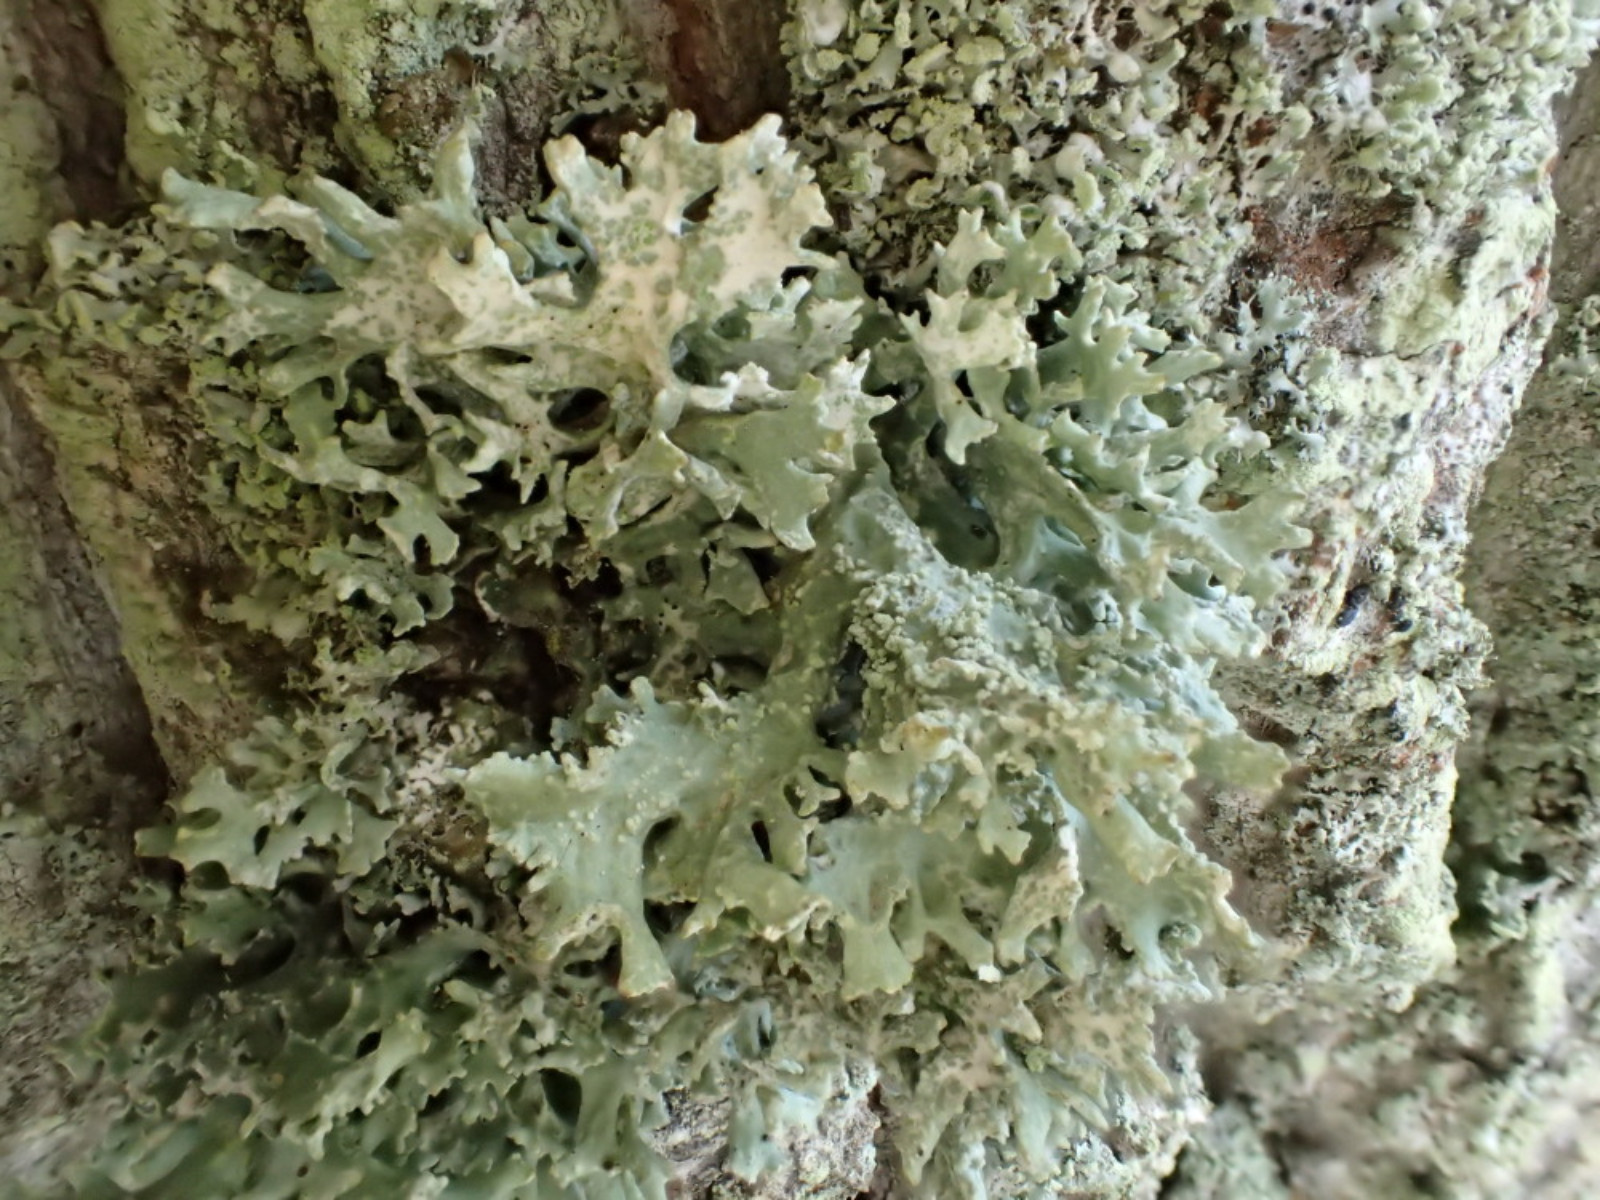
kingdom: Fungi
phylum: Ascomycota
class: Lecanoromycetes
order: Lecanorales
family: Parmeliaceae
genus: Evernia
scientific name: Evernia prunastri
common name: almindelig slåenlav
